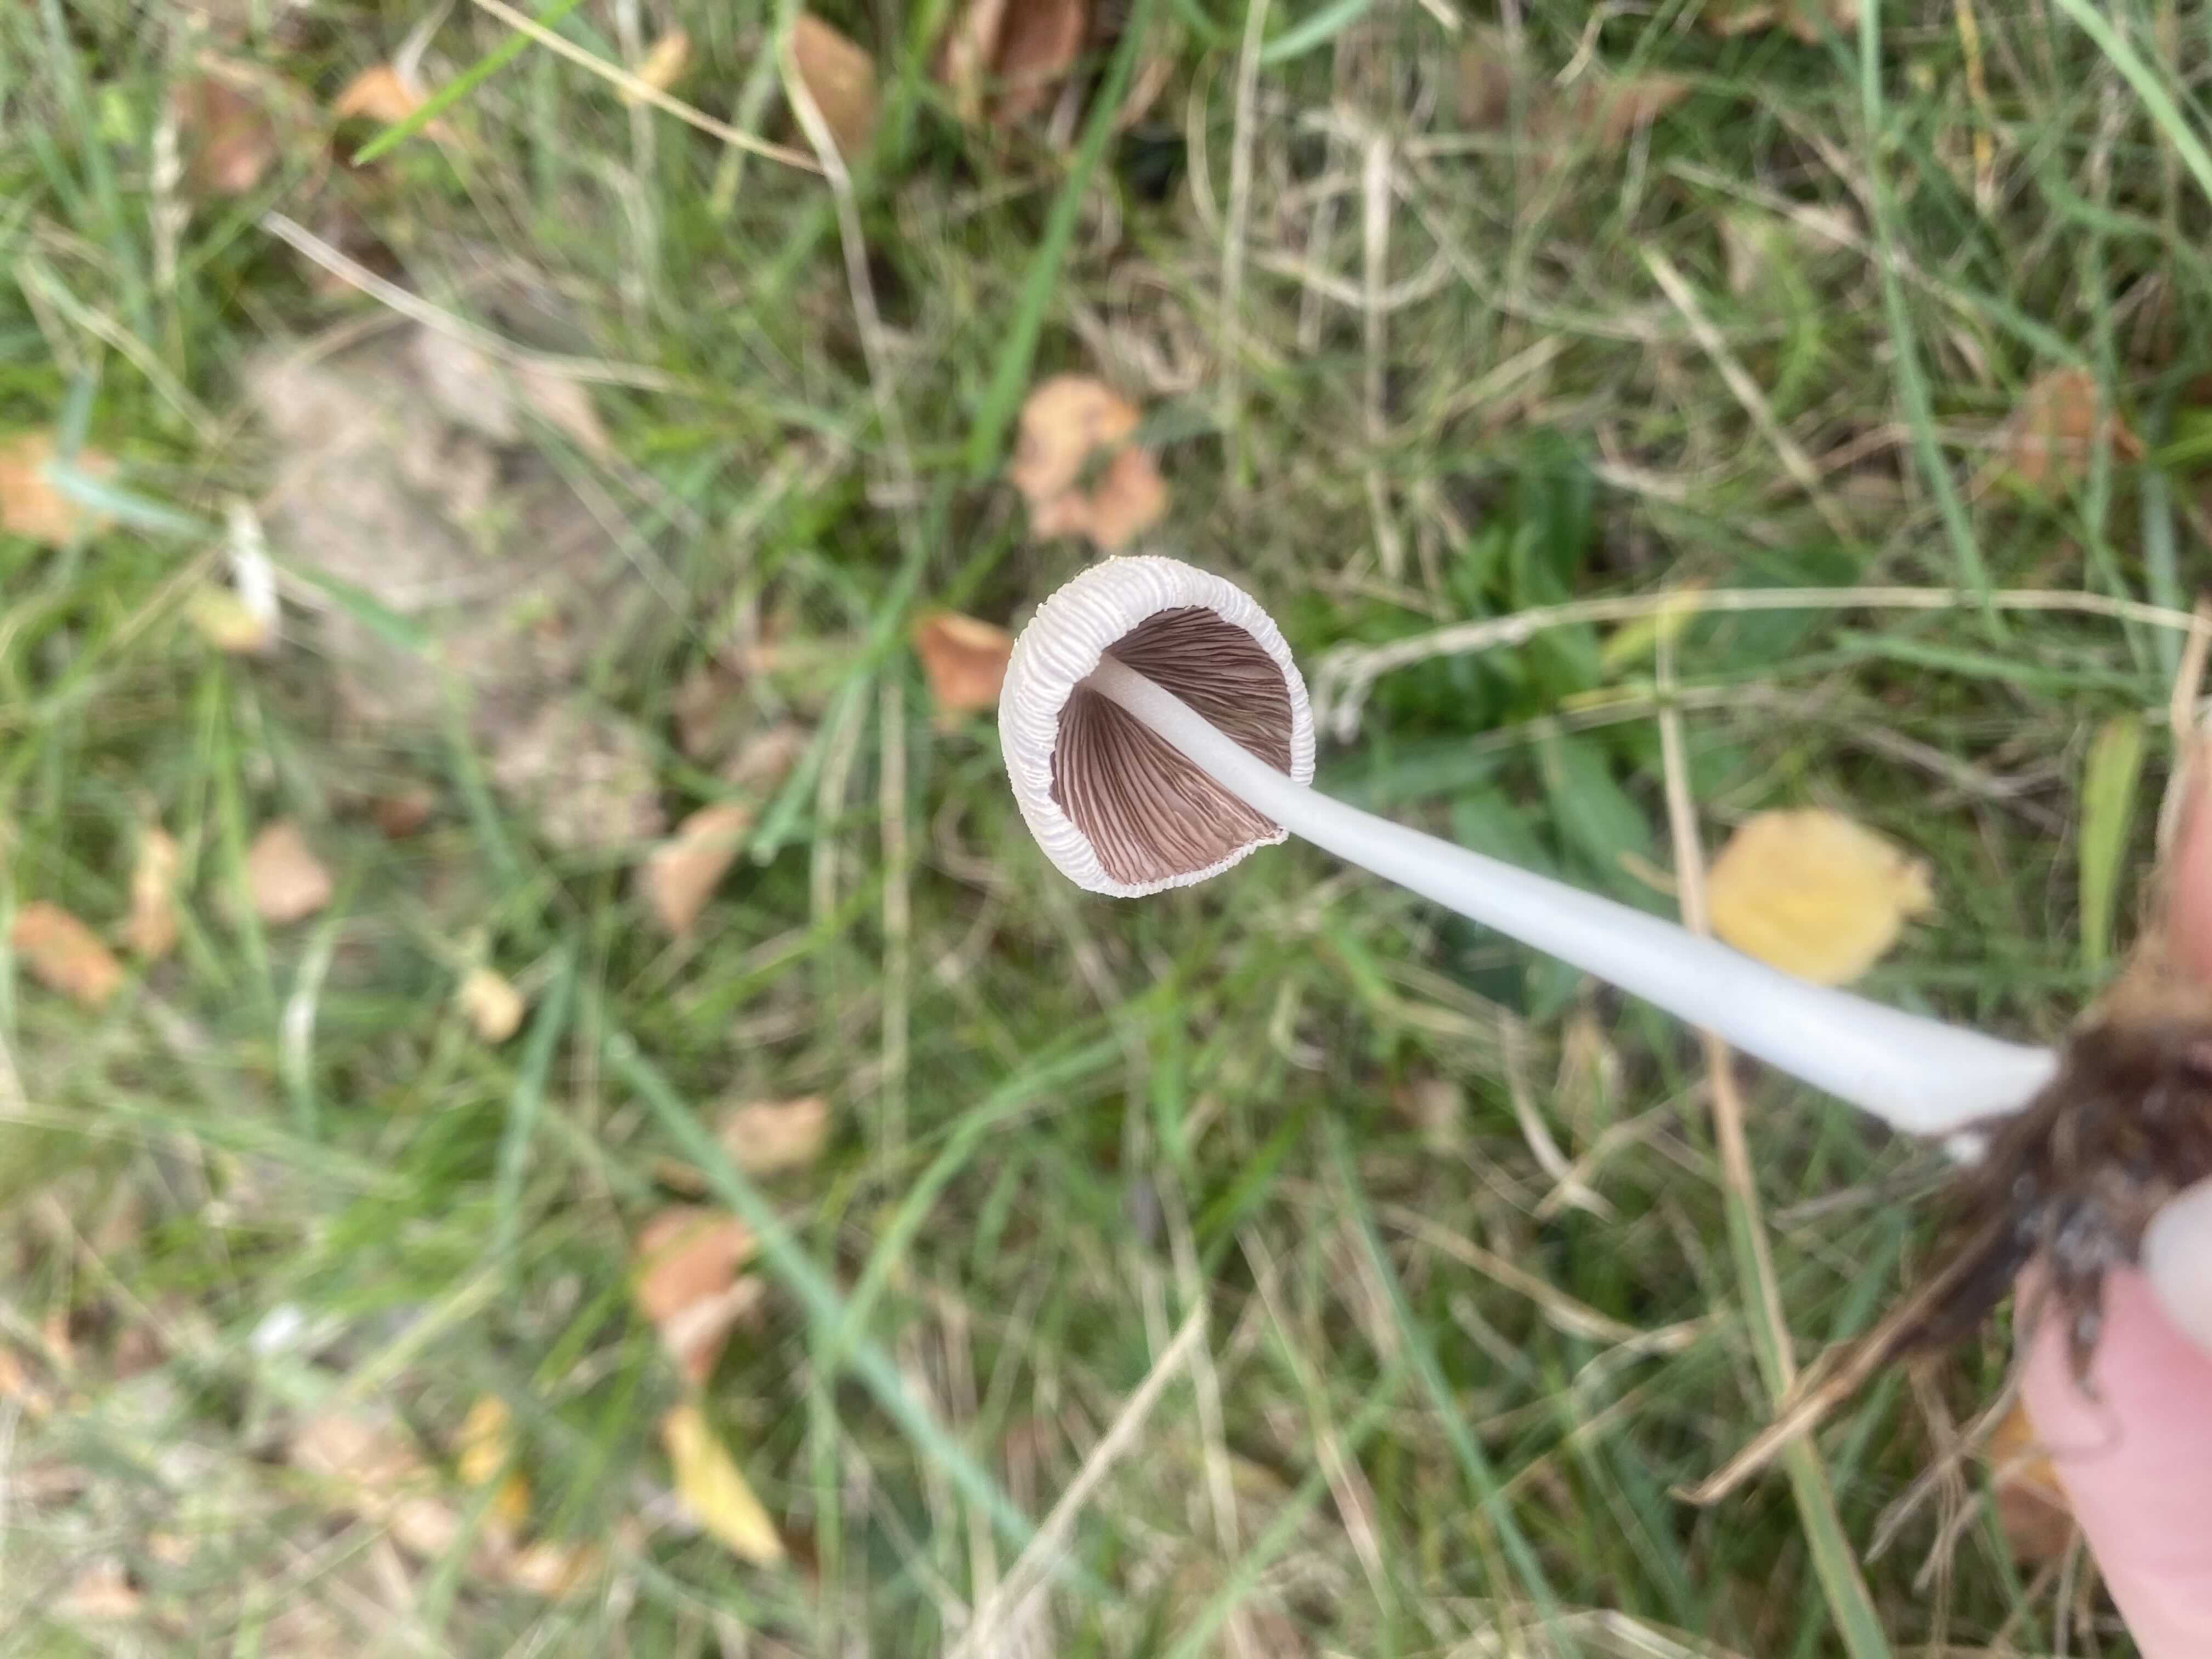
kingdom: Fungi
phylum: Basidiomycota
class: Agaricomycetes
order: Agaricales
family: Psathyrellaceae
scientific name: Psathyrellaceae
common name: mørkhatfamilien
